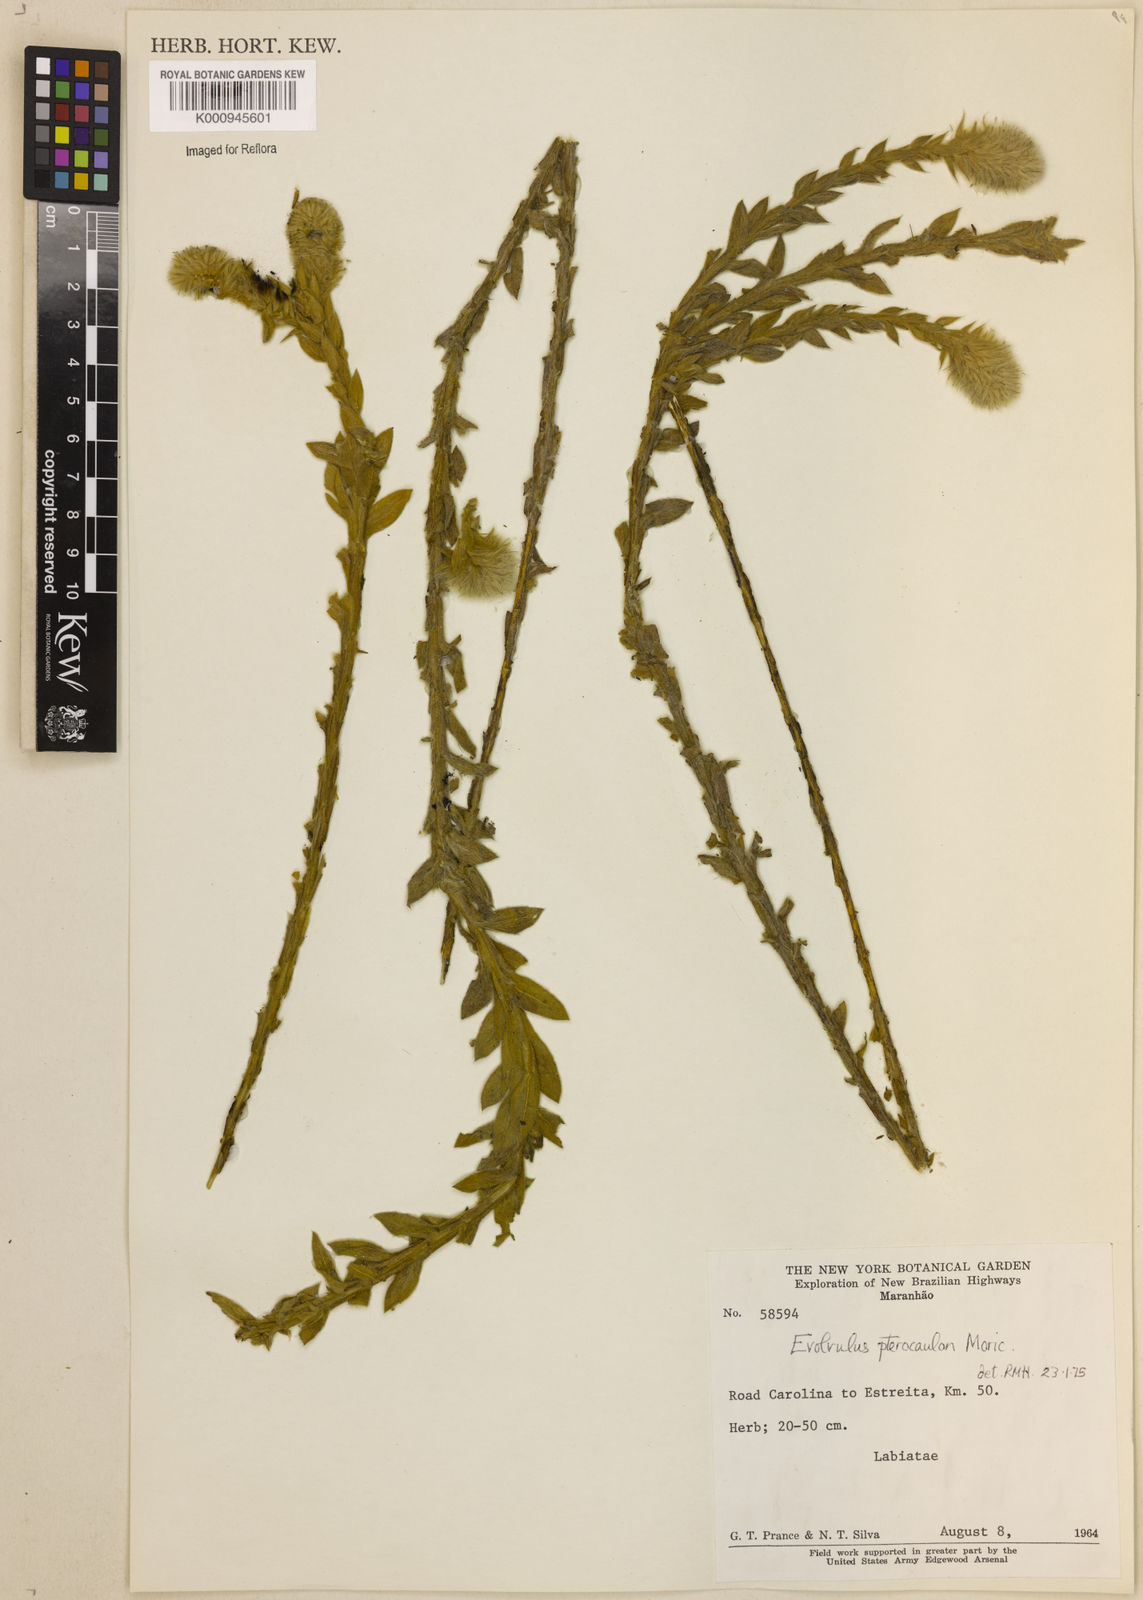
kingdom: Plantae
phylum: Tracheophyta
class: Magnoliopsida
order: Solanales
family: Convolvulaceae
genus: Evolvulus
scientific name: Evolvulus pterocaulon
